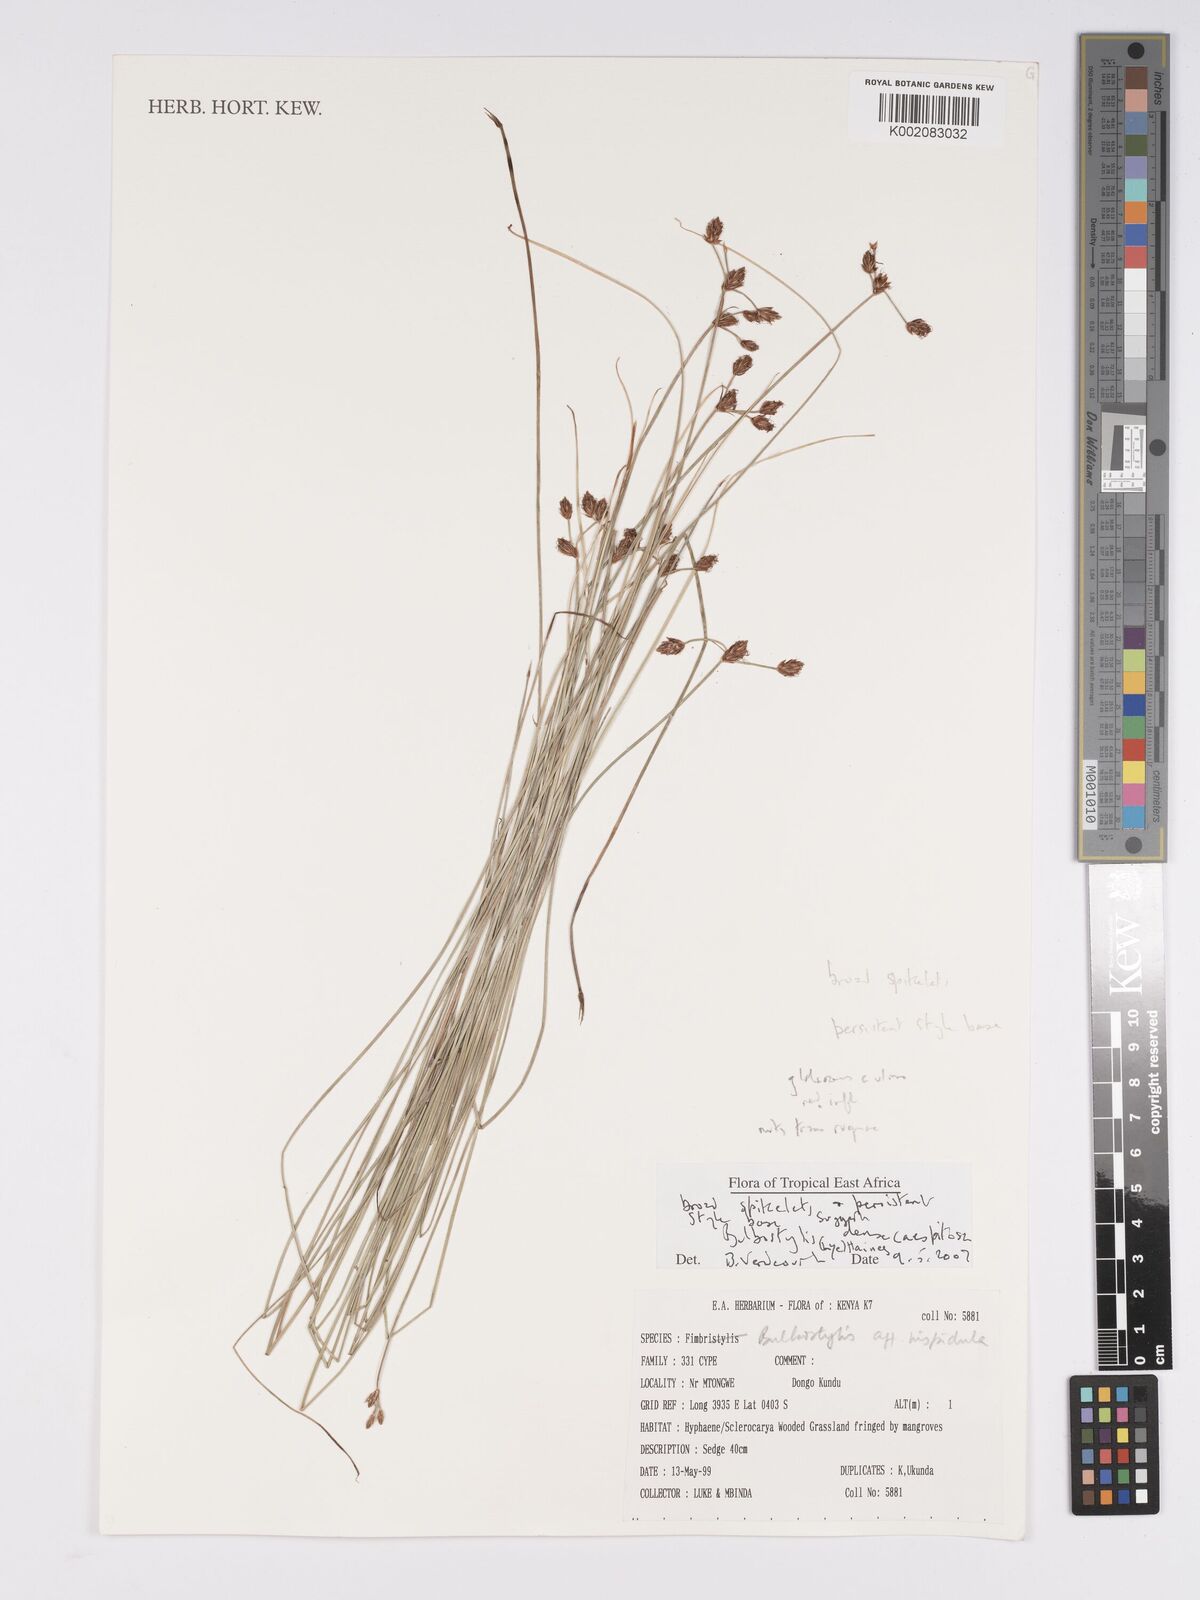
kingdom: Plantae
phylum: Tracheophyta
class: Liliopsida
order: Poales
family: Cyperaceae
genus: Bulbostylis
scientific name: Bulbostylis densicaespitosa
